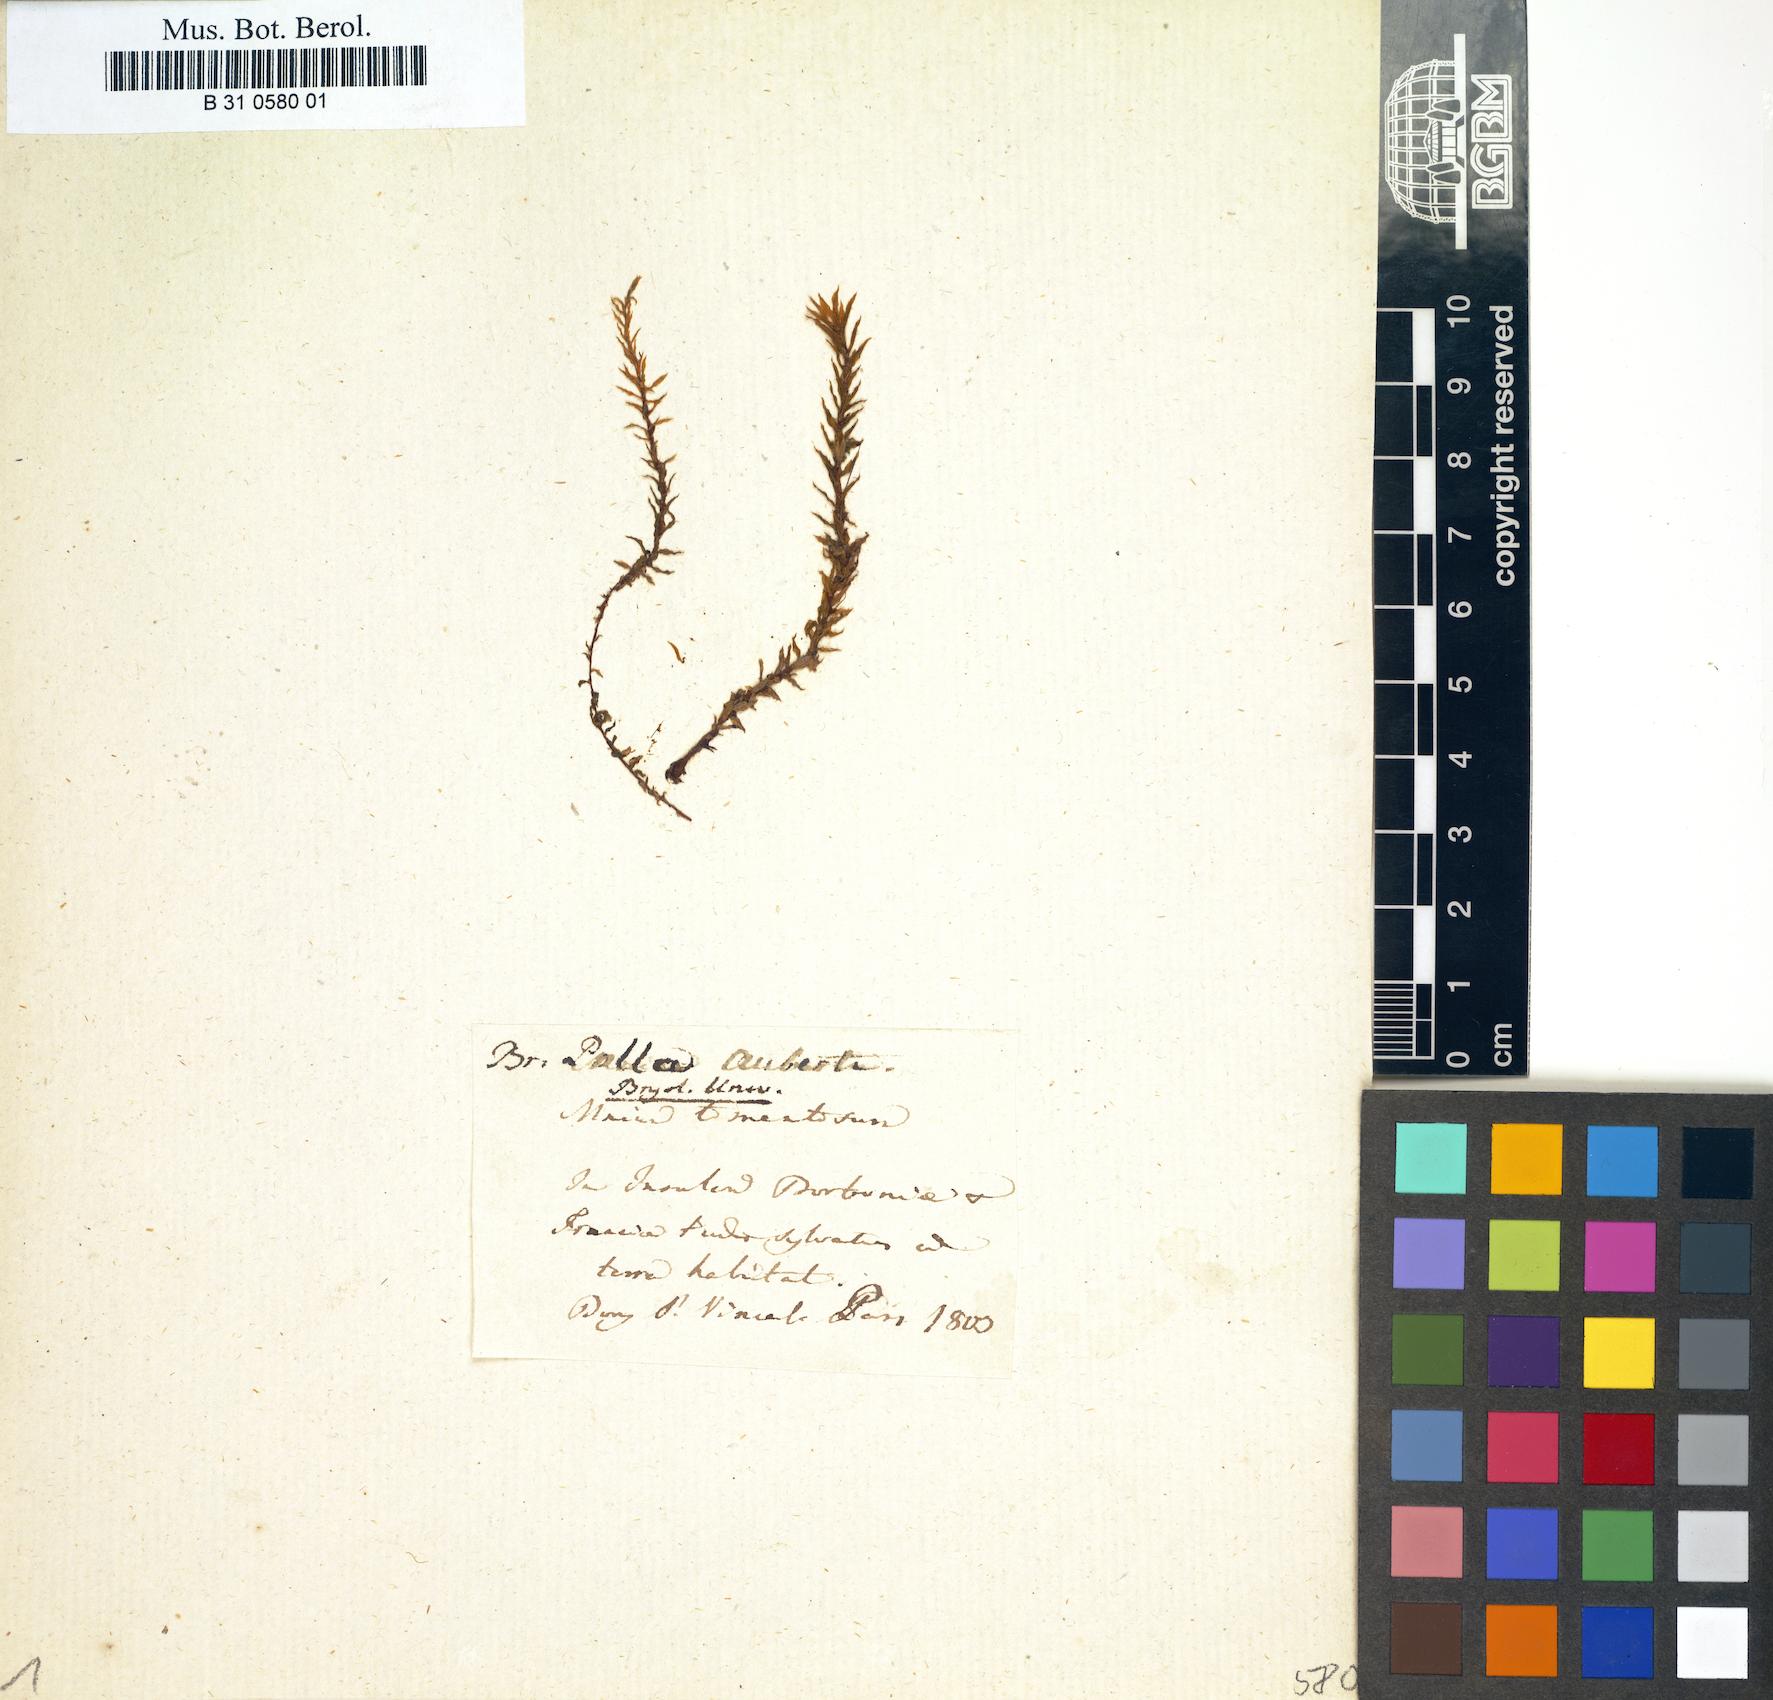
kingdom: Plantae
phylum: Bryophyta
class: Bryopsida
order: Bryales
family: Bryaceae
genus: Rosulabryum
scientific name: Rosulabryum aubertii
